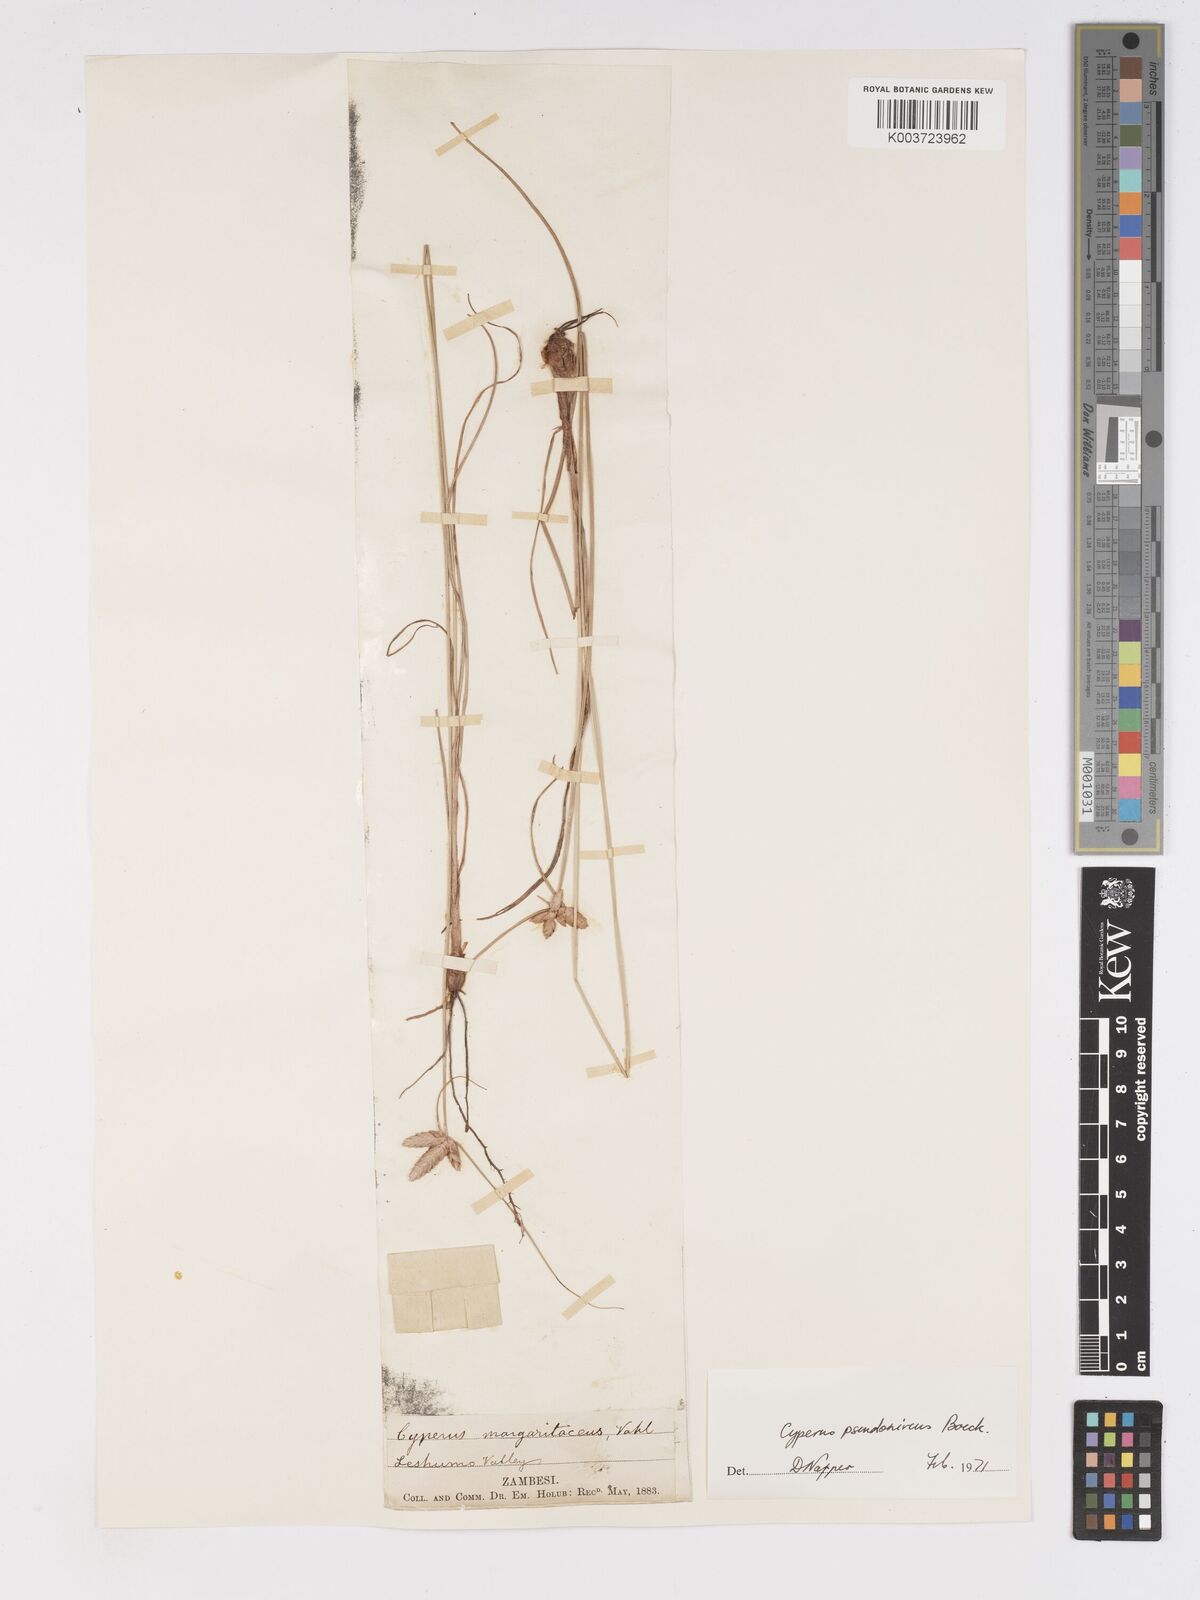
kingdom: Plantae
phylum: Tracheophyta
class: Liliopsida
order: Poales
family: Cyperaceae
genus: Cyperus
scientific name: Cyperus margaritaceus
